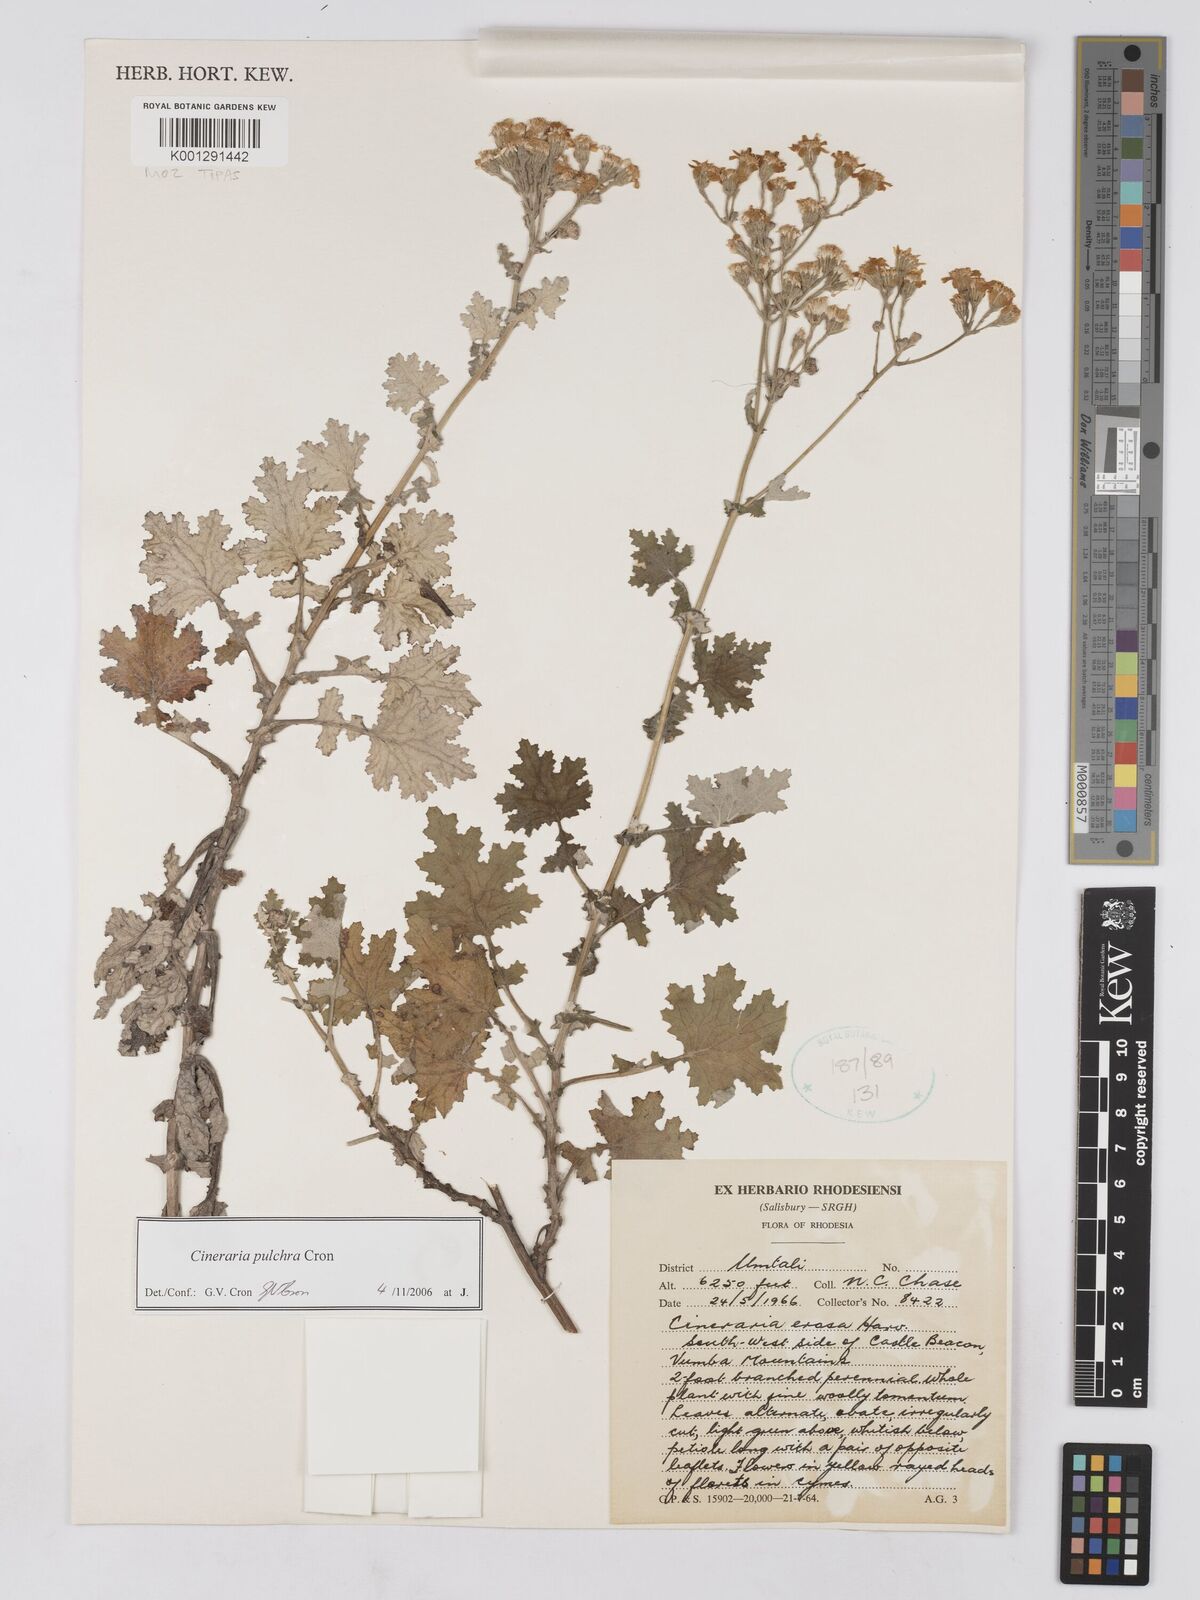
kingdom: Plantae
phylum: Tracheophyta
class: Magnoliopsida
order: Asterales
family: Asteraceae
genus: Cineraria
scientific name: Cineraria pulchra
